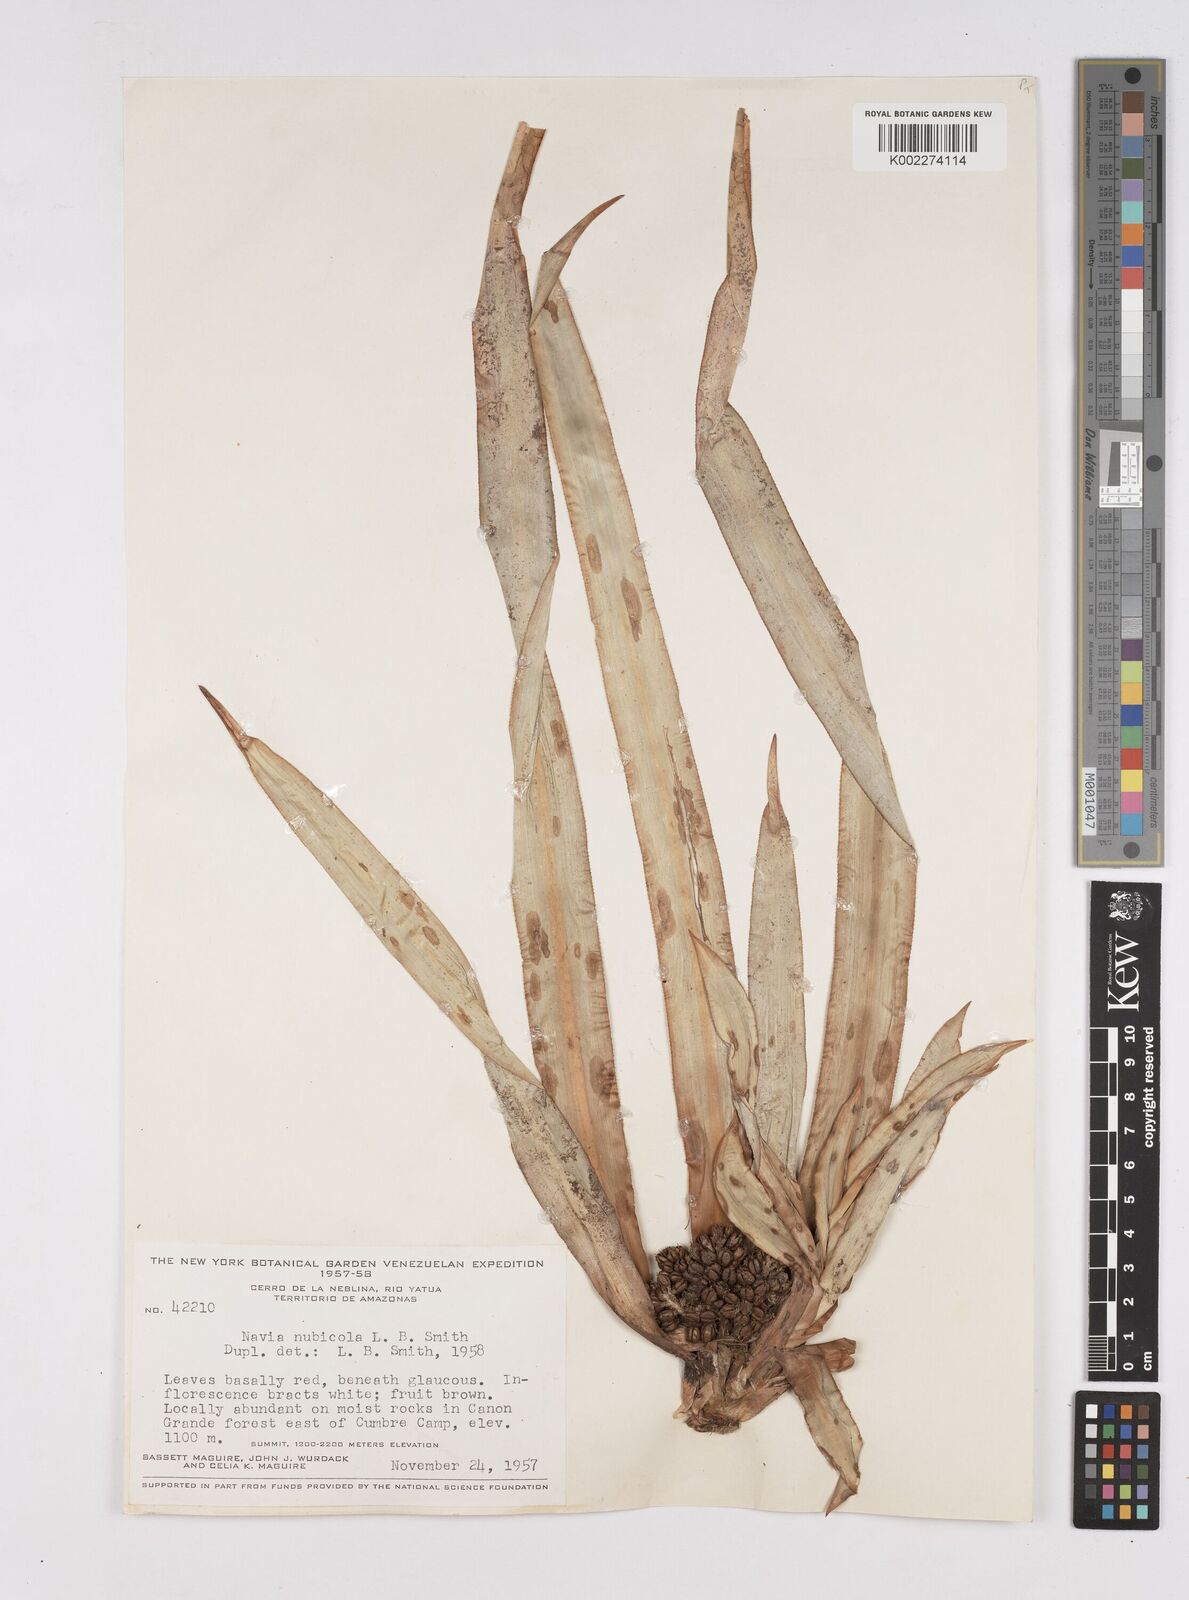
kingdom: Plantae
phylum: Tracheophyta
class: Liliopsida
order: Poales
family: Bromeliaceae
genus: Navia
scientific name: Navia nubicola
